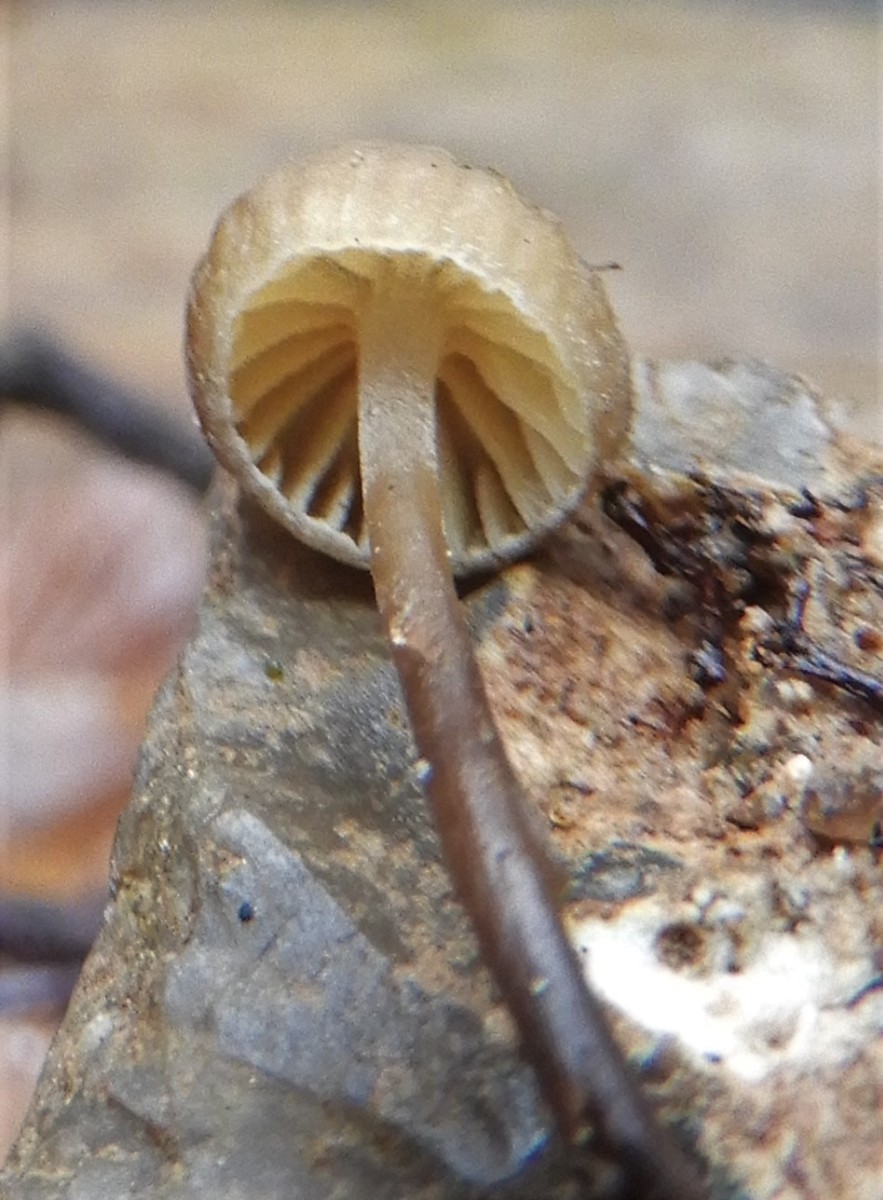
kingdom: Fungi
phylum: Basidiomycota
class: Agaricomycetes
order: Agaricales
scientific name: Agaricales
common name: champignonordenen
